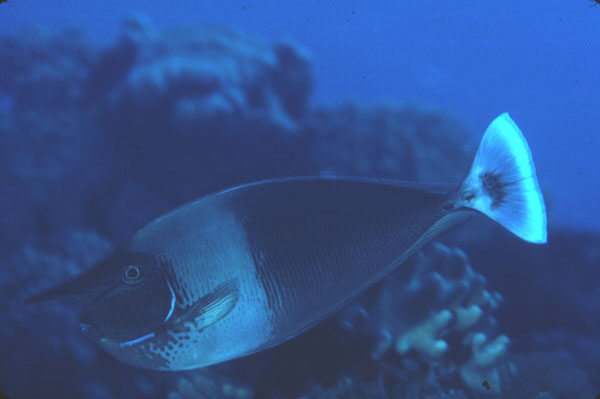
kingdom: Animalia
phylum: Chordata
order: Perciformes
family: Acanthuridae
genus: Naso
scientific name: Naso brevirostris
